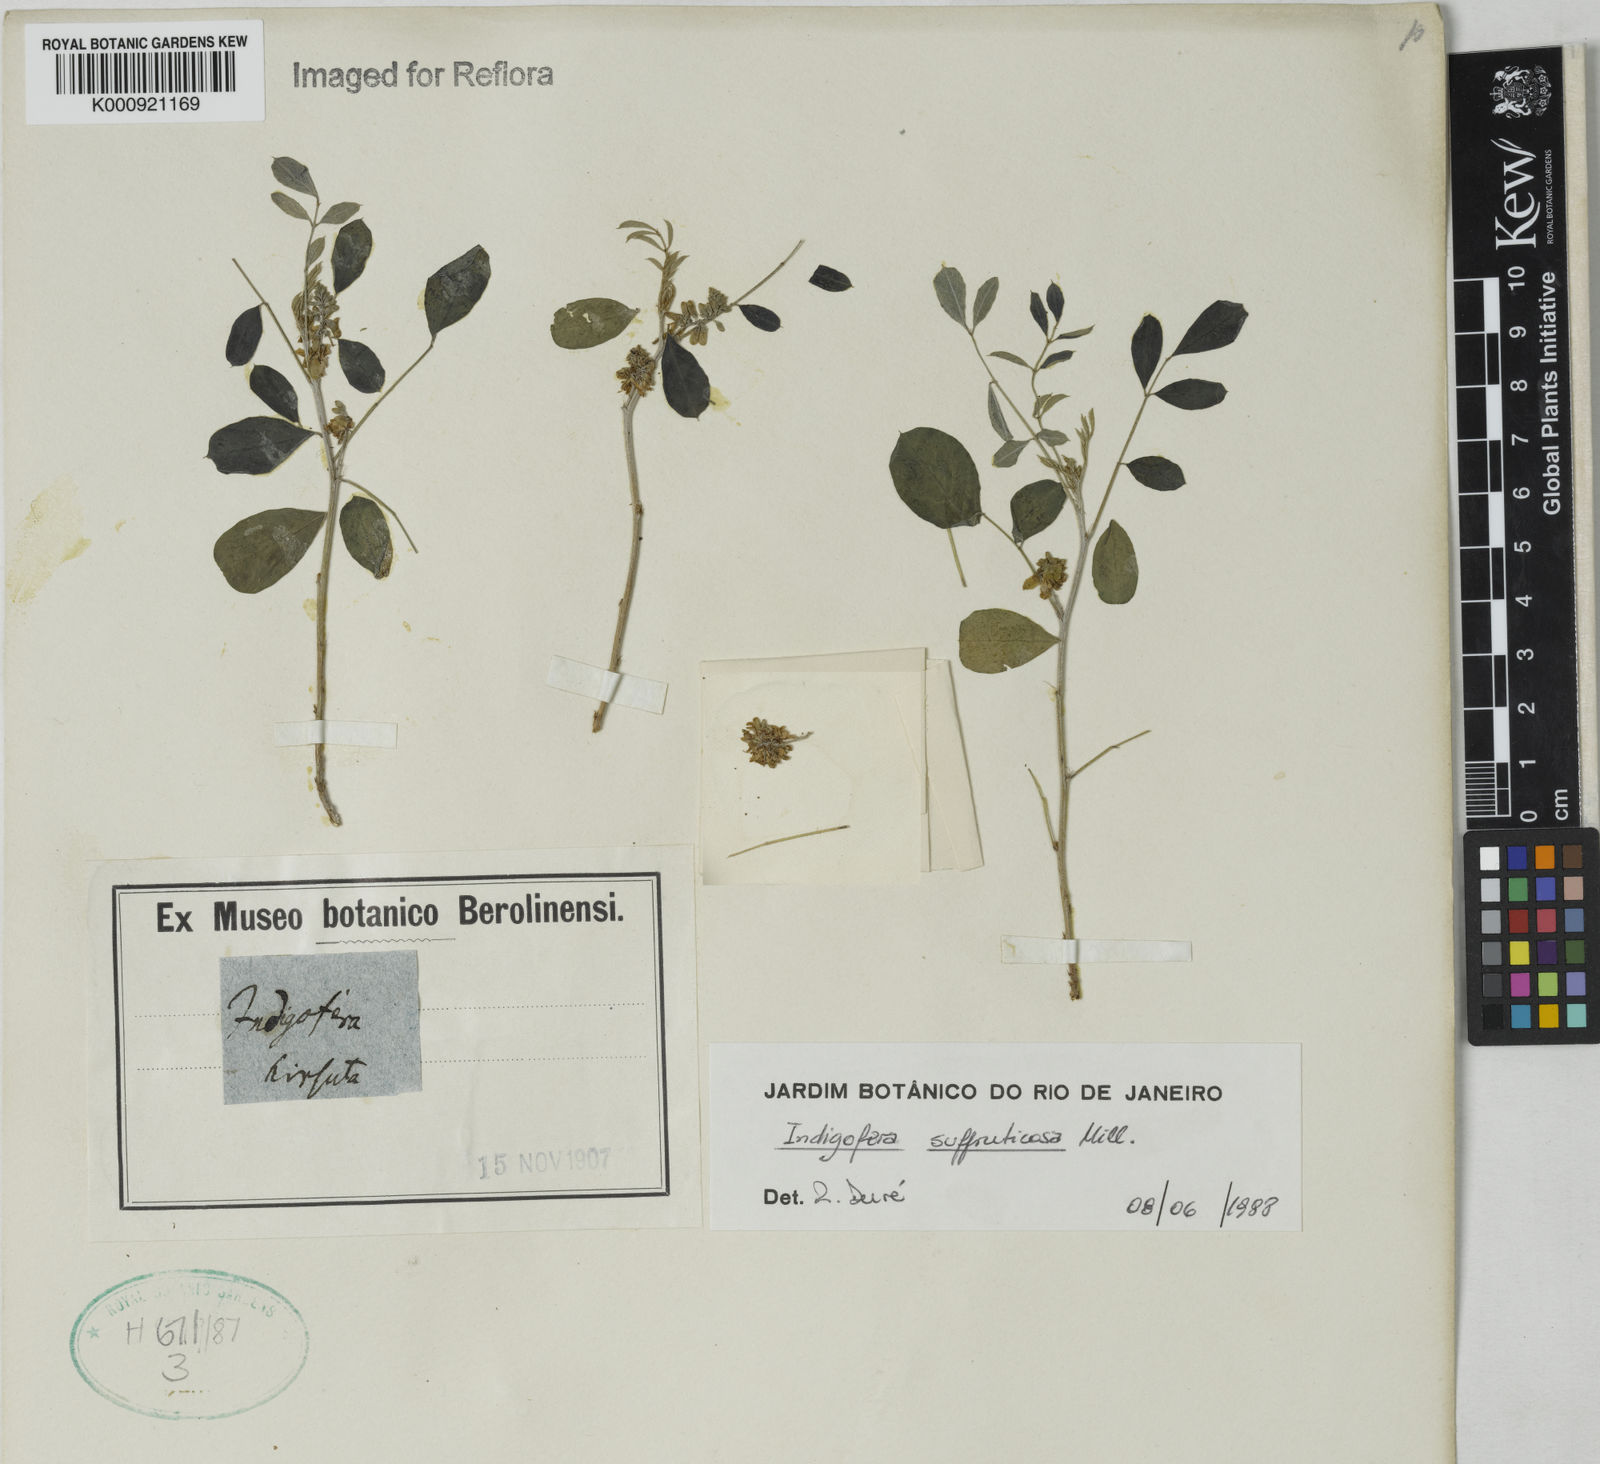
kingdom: Plantae
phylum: Tracheophyta
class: Magnoliopsida
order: Fabales
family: Fabaceae
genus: Indigofera
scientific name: Indigofera suffruticosa
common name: Anil de pasto
